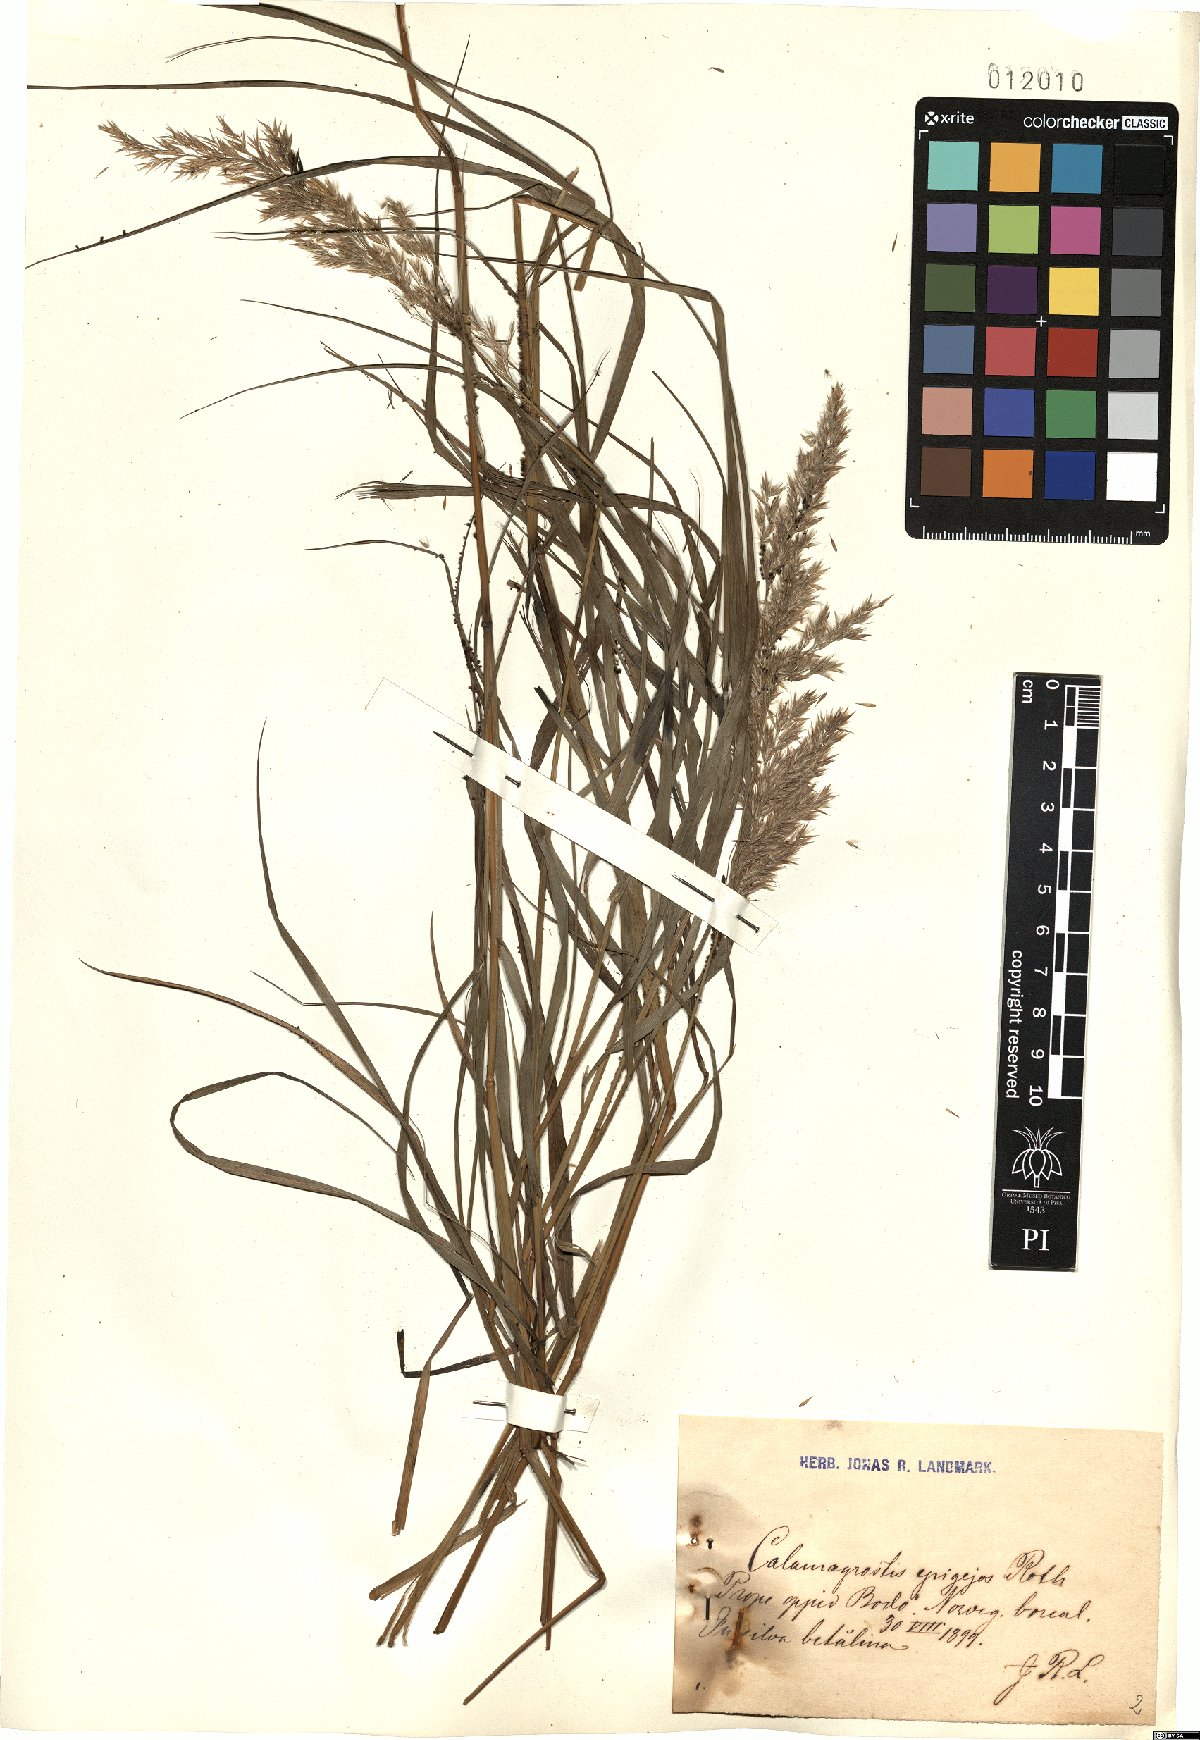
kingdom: Plantae
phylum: Tracheophyta
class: Liliopsida
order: Poales
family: Poaceae
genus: Calamagrostis
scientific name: Calamagrostis epigejos
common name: Wood small-reed
